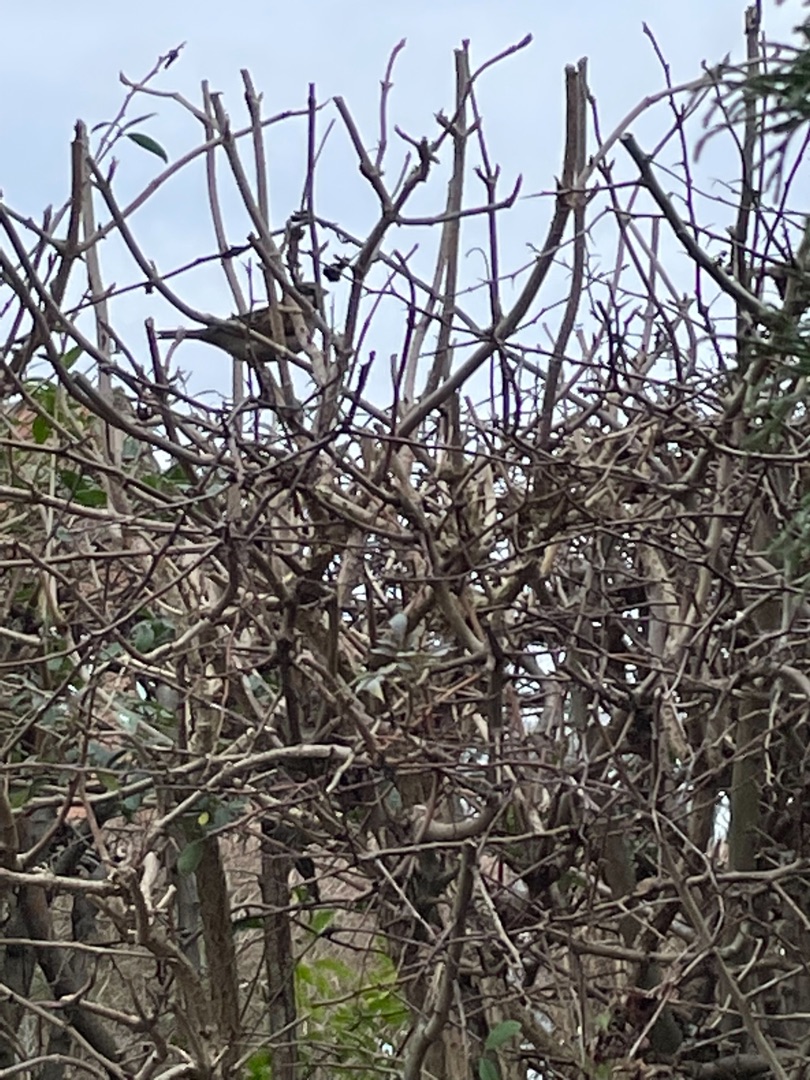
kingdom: Animalia
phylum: Chordata
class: Aves
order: Passeriformes
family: Passeridae
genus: Passer
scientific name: Passer domesticus
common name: Gråspurv
